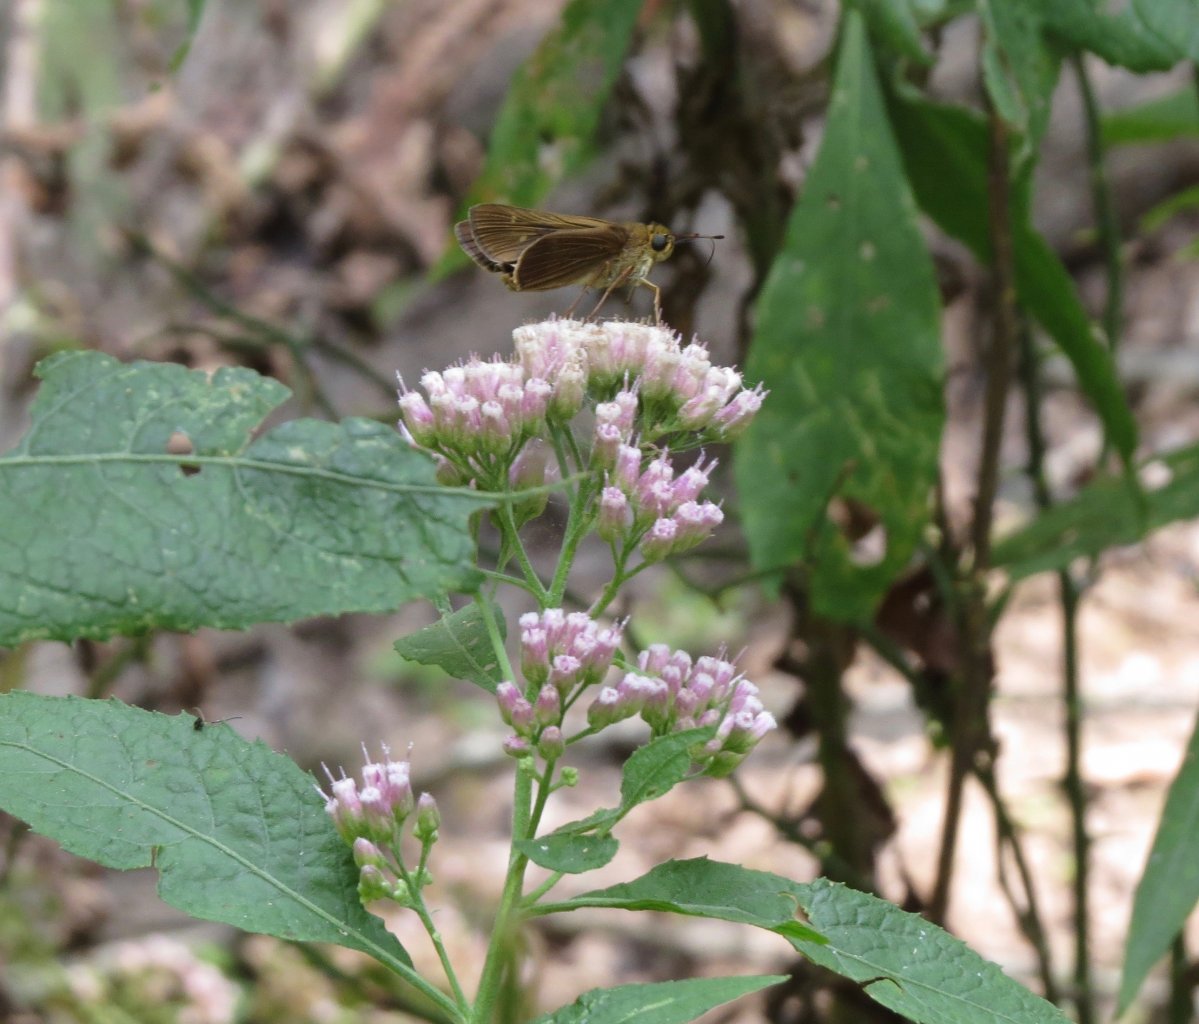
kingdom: Animalia
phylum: Arthropoda
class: Insecta
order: Lepidoptera
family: Hesperiidae
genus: Panoquina
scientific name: Panoquina ocola
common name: Ocola Skipper
